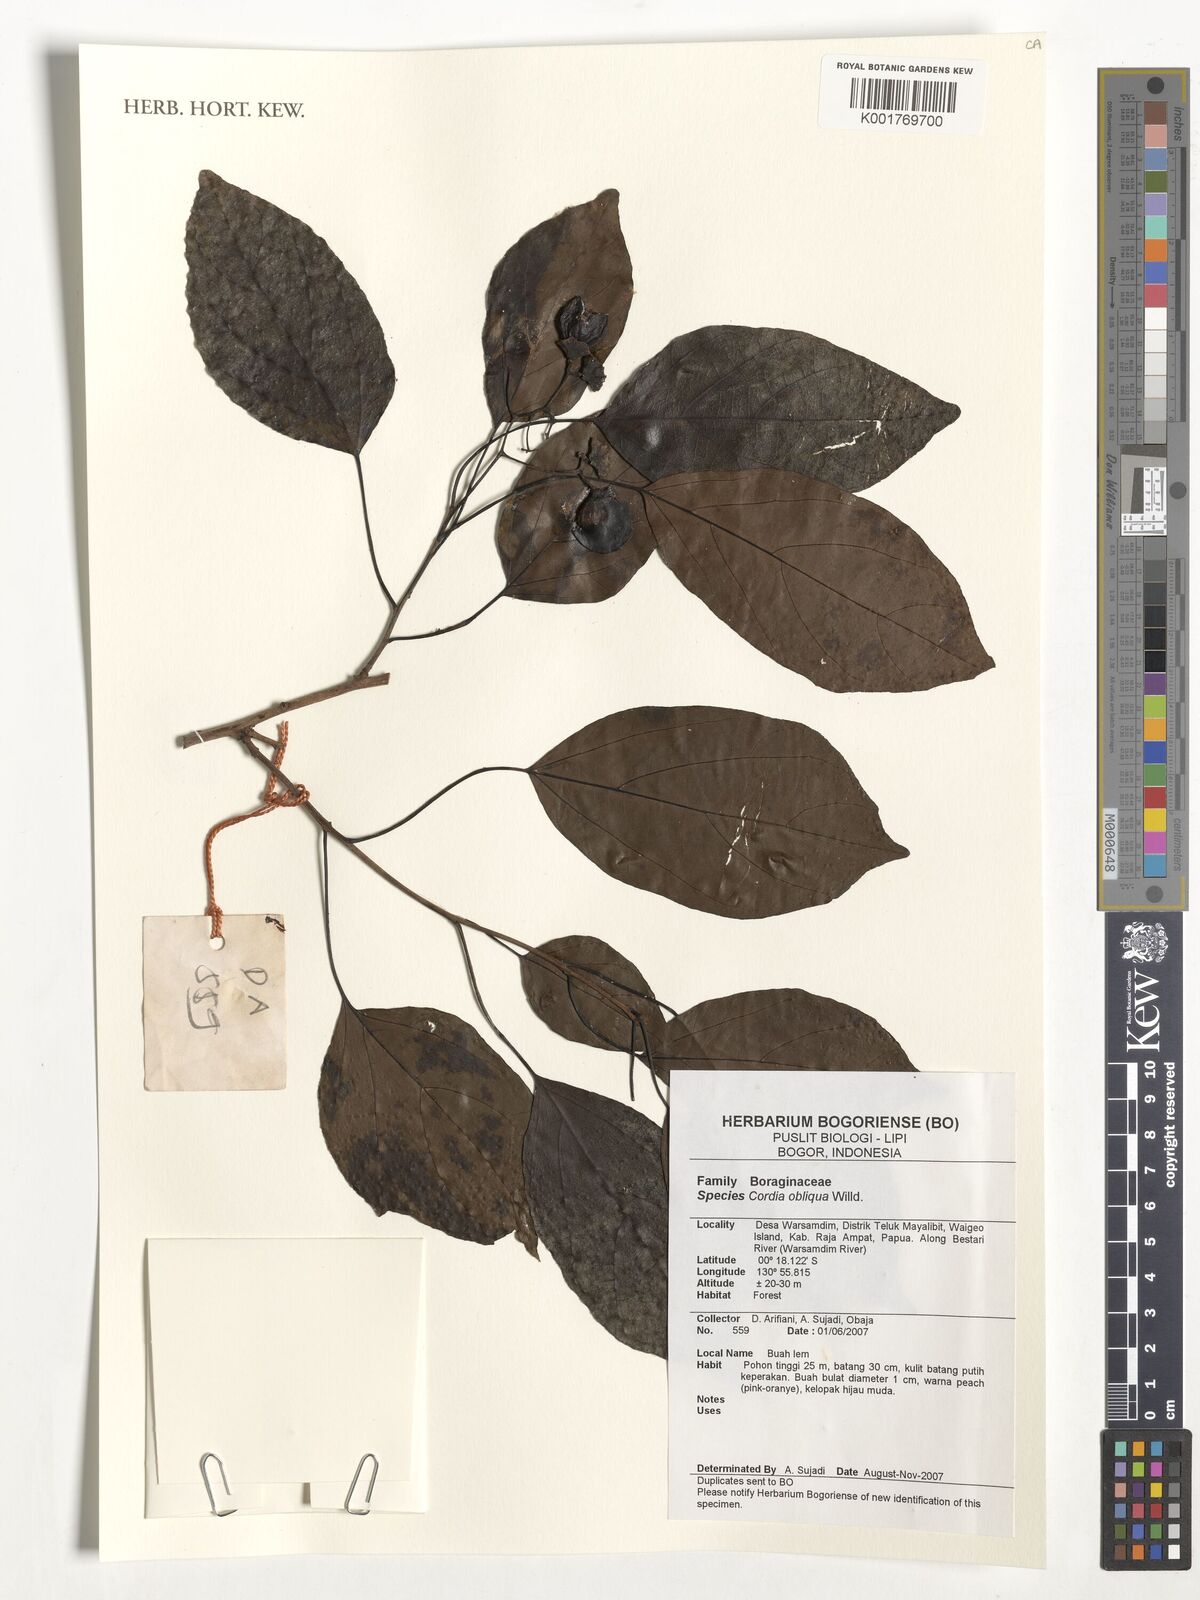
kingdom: Plantae
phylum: Tracheophyta
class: Magnoliopsida
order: Boraginales
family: Cordiaceae
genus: Cordia
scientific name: Cordia dichotoma
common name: Fragrant manjack
